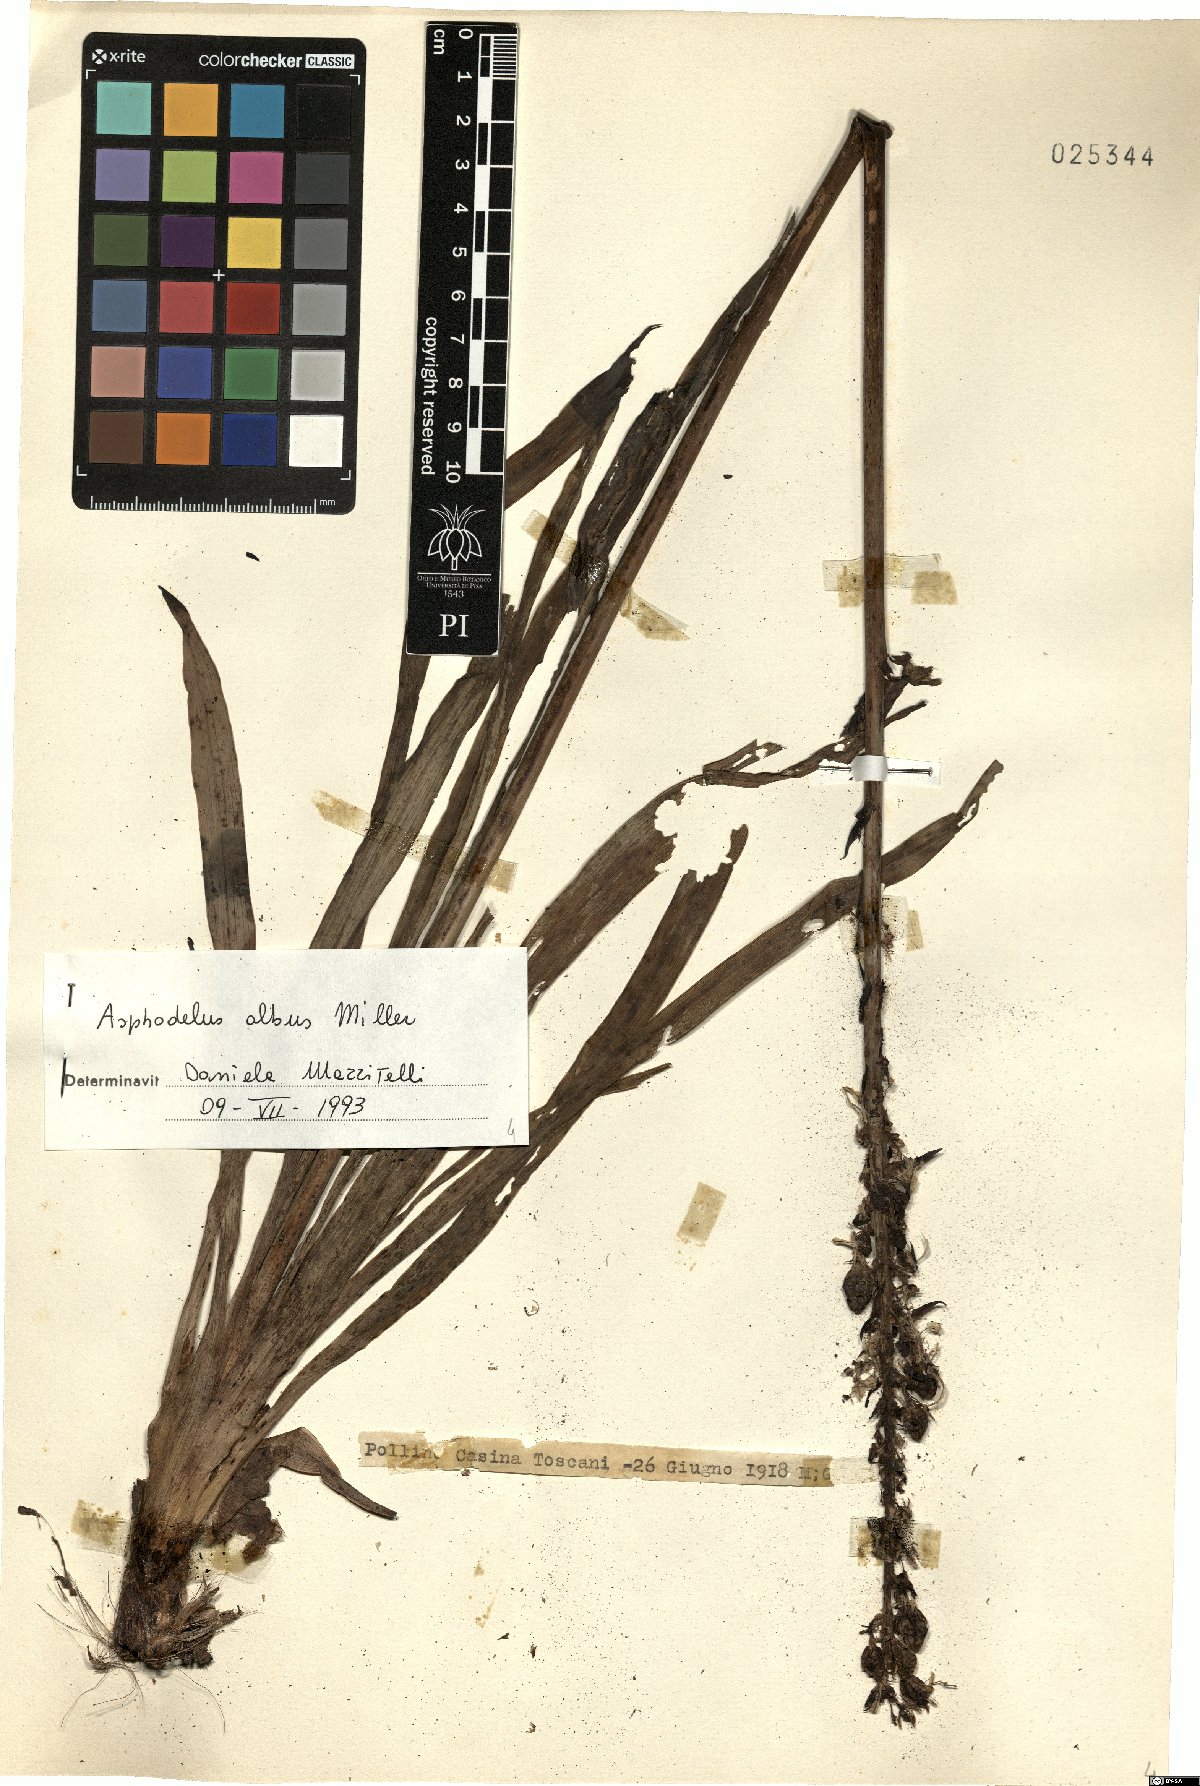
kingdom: Plantae
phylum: Tracheophyta
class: Liliopsida
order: Asparagales
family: Asphodelaceae
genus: Asphodelus
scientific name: Asphodelus albus
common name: White asphodel
